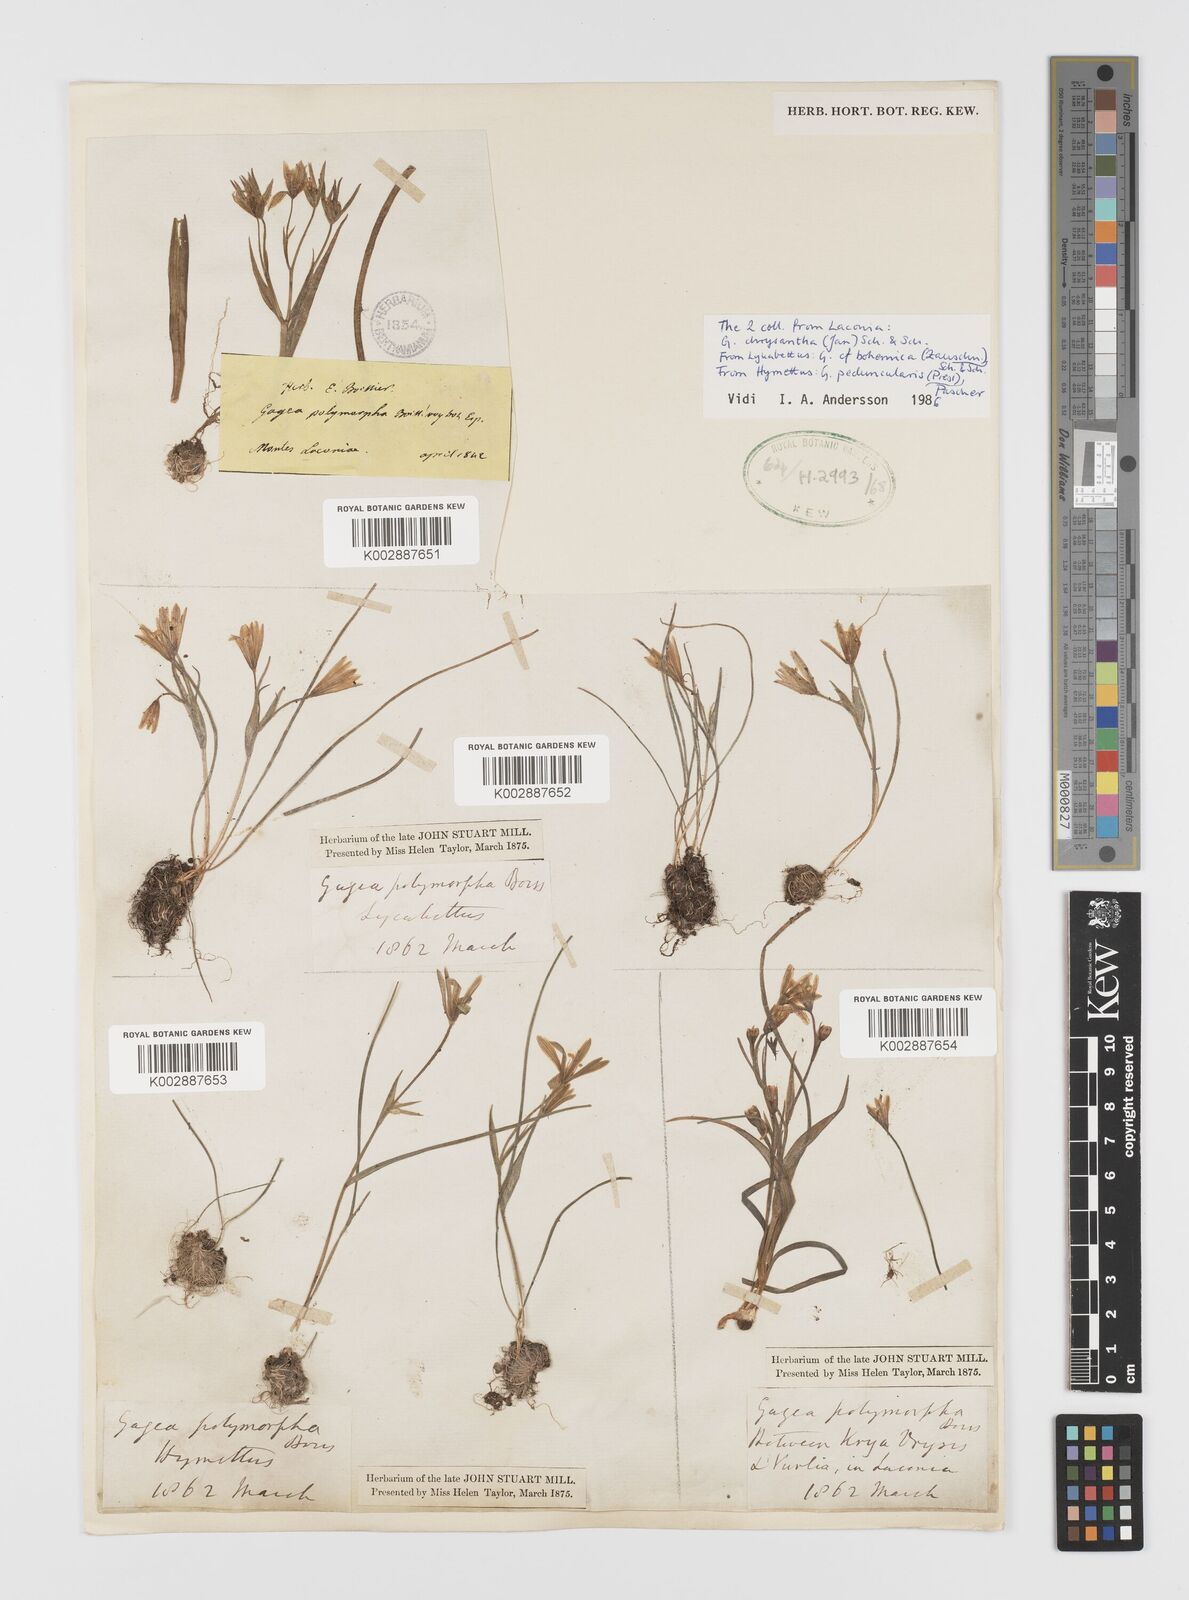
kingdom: Plantae
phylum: Tracheophyta
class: Liliopsida
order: Liliales
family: Liliaceae
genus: Gagea
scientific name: Gagea polymorpha
